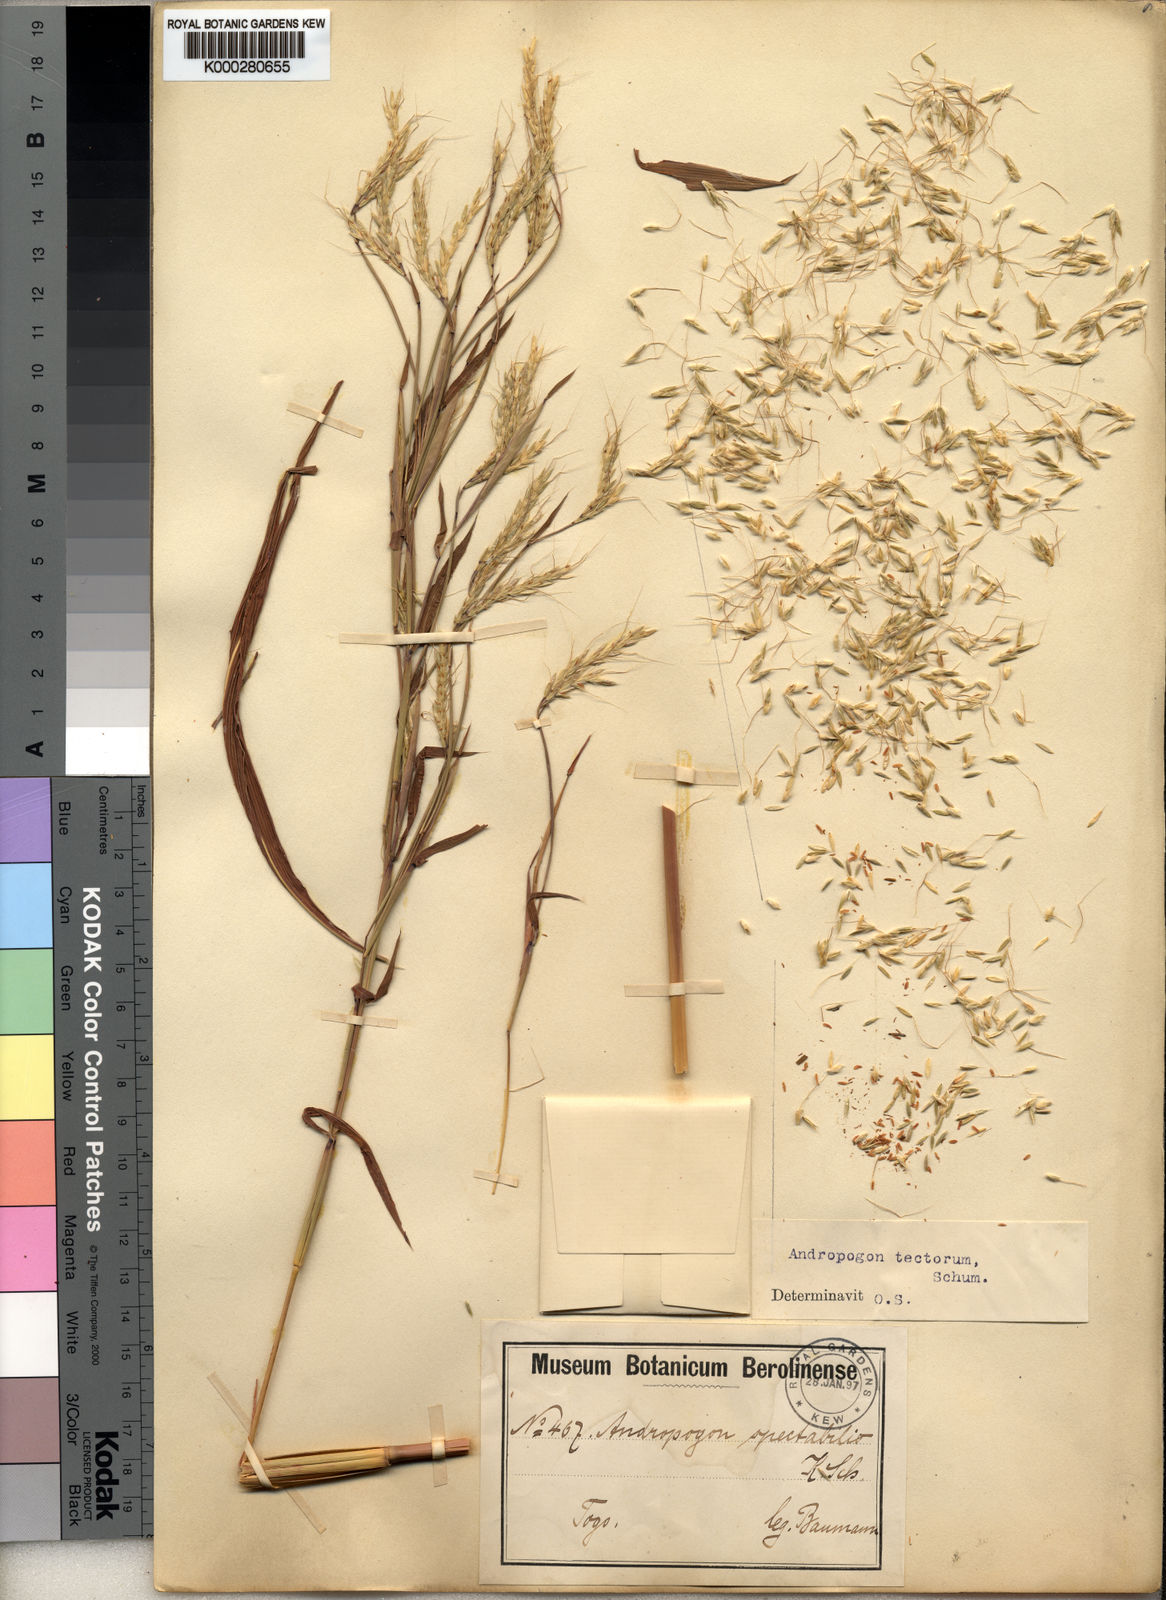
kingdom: Plantae
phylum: Tracheophyta
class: Liliopsida
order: Poales
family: Poaceae
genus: Andropogon
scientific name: Andropogon tectorum
